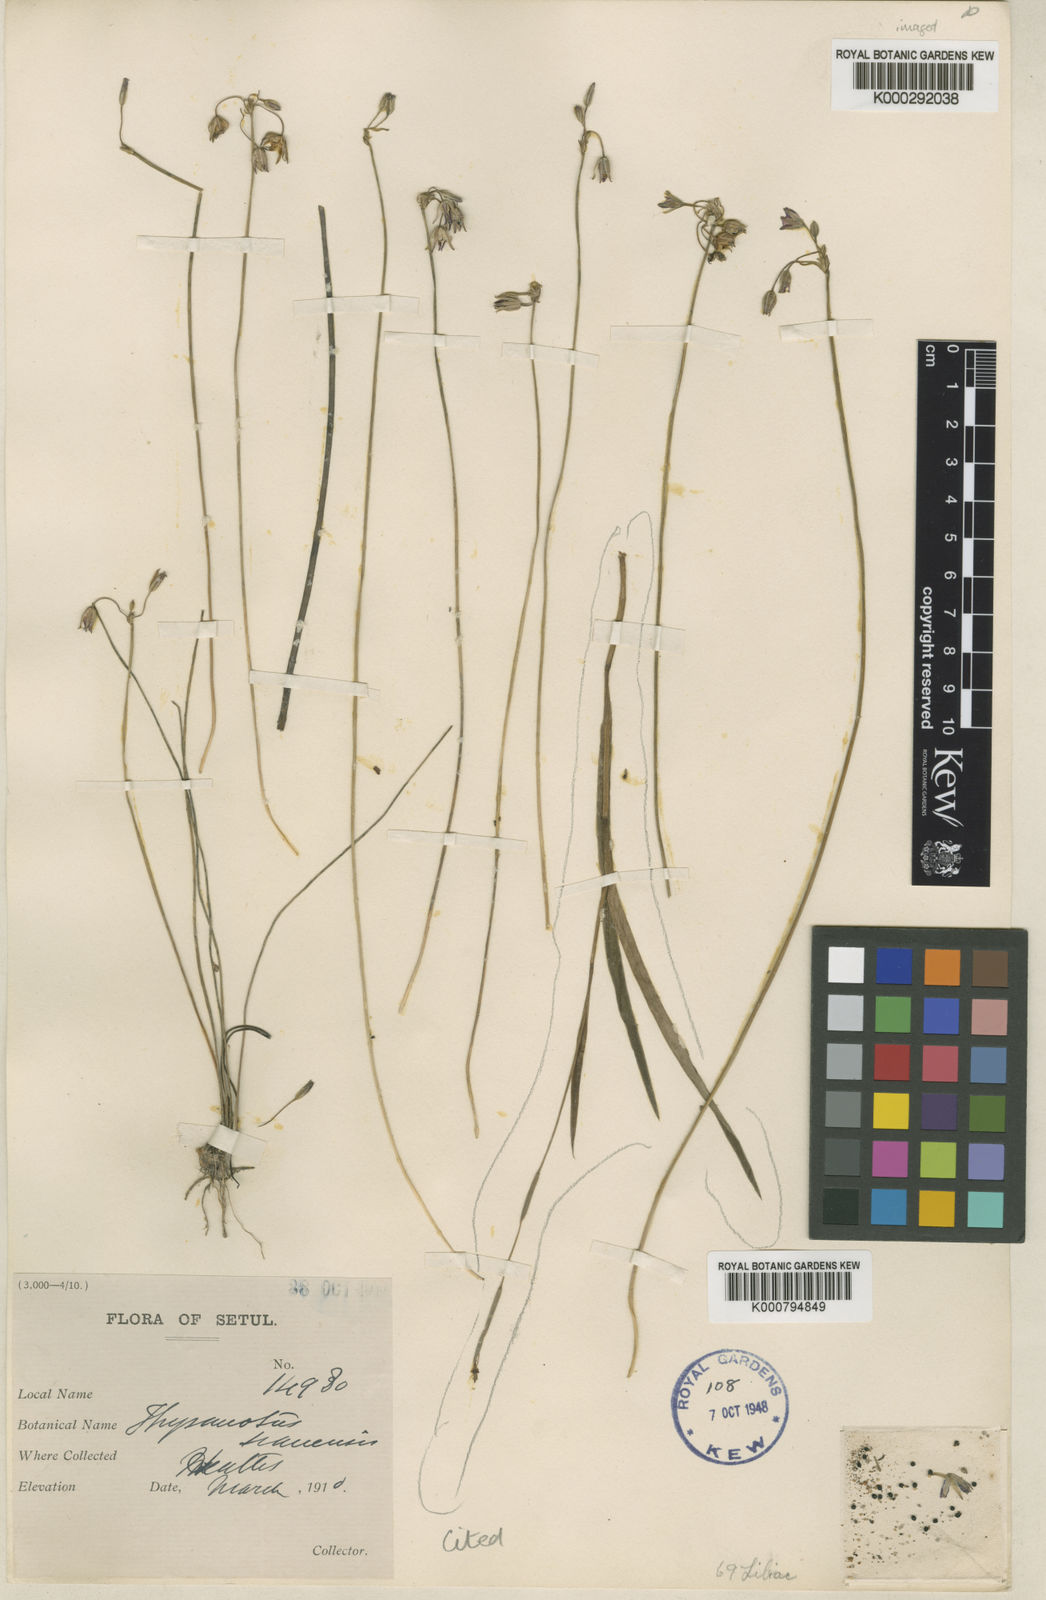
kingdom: Plantae
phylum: Tracheophyta
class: Liliopsida
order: Asparagales
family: Asparagaceae
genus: Thysanotus
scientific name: Thysanotus chinensis
